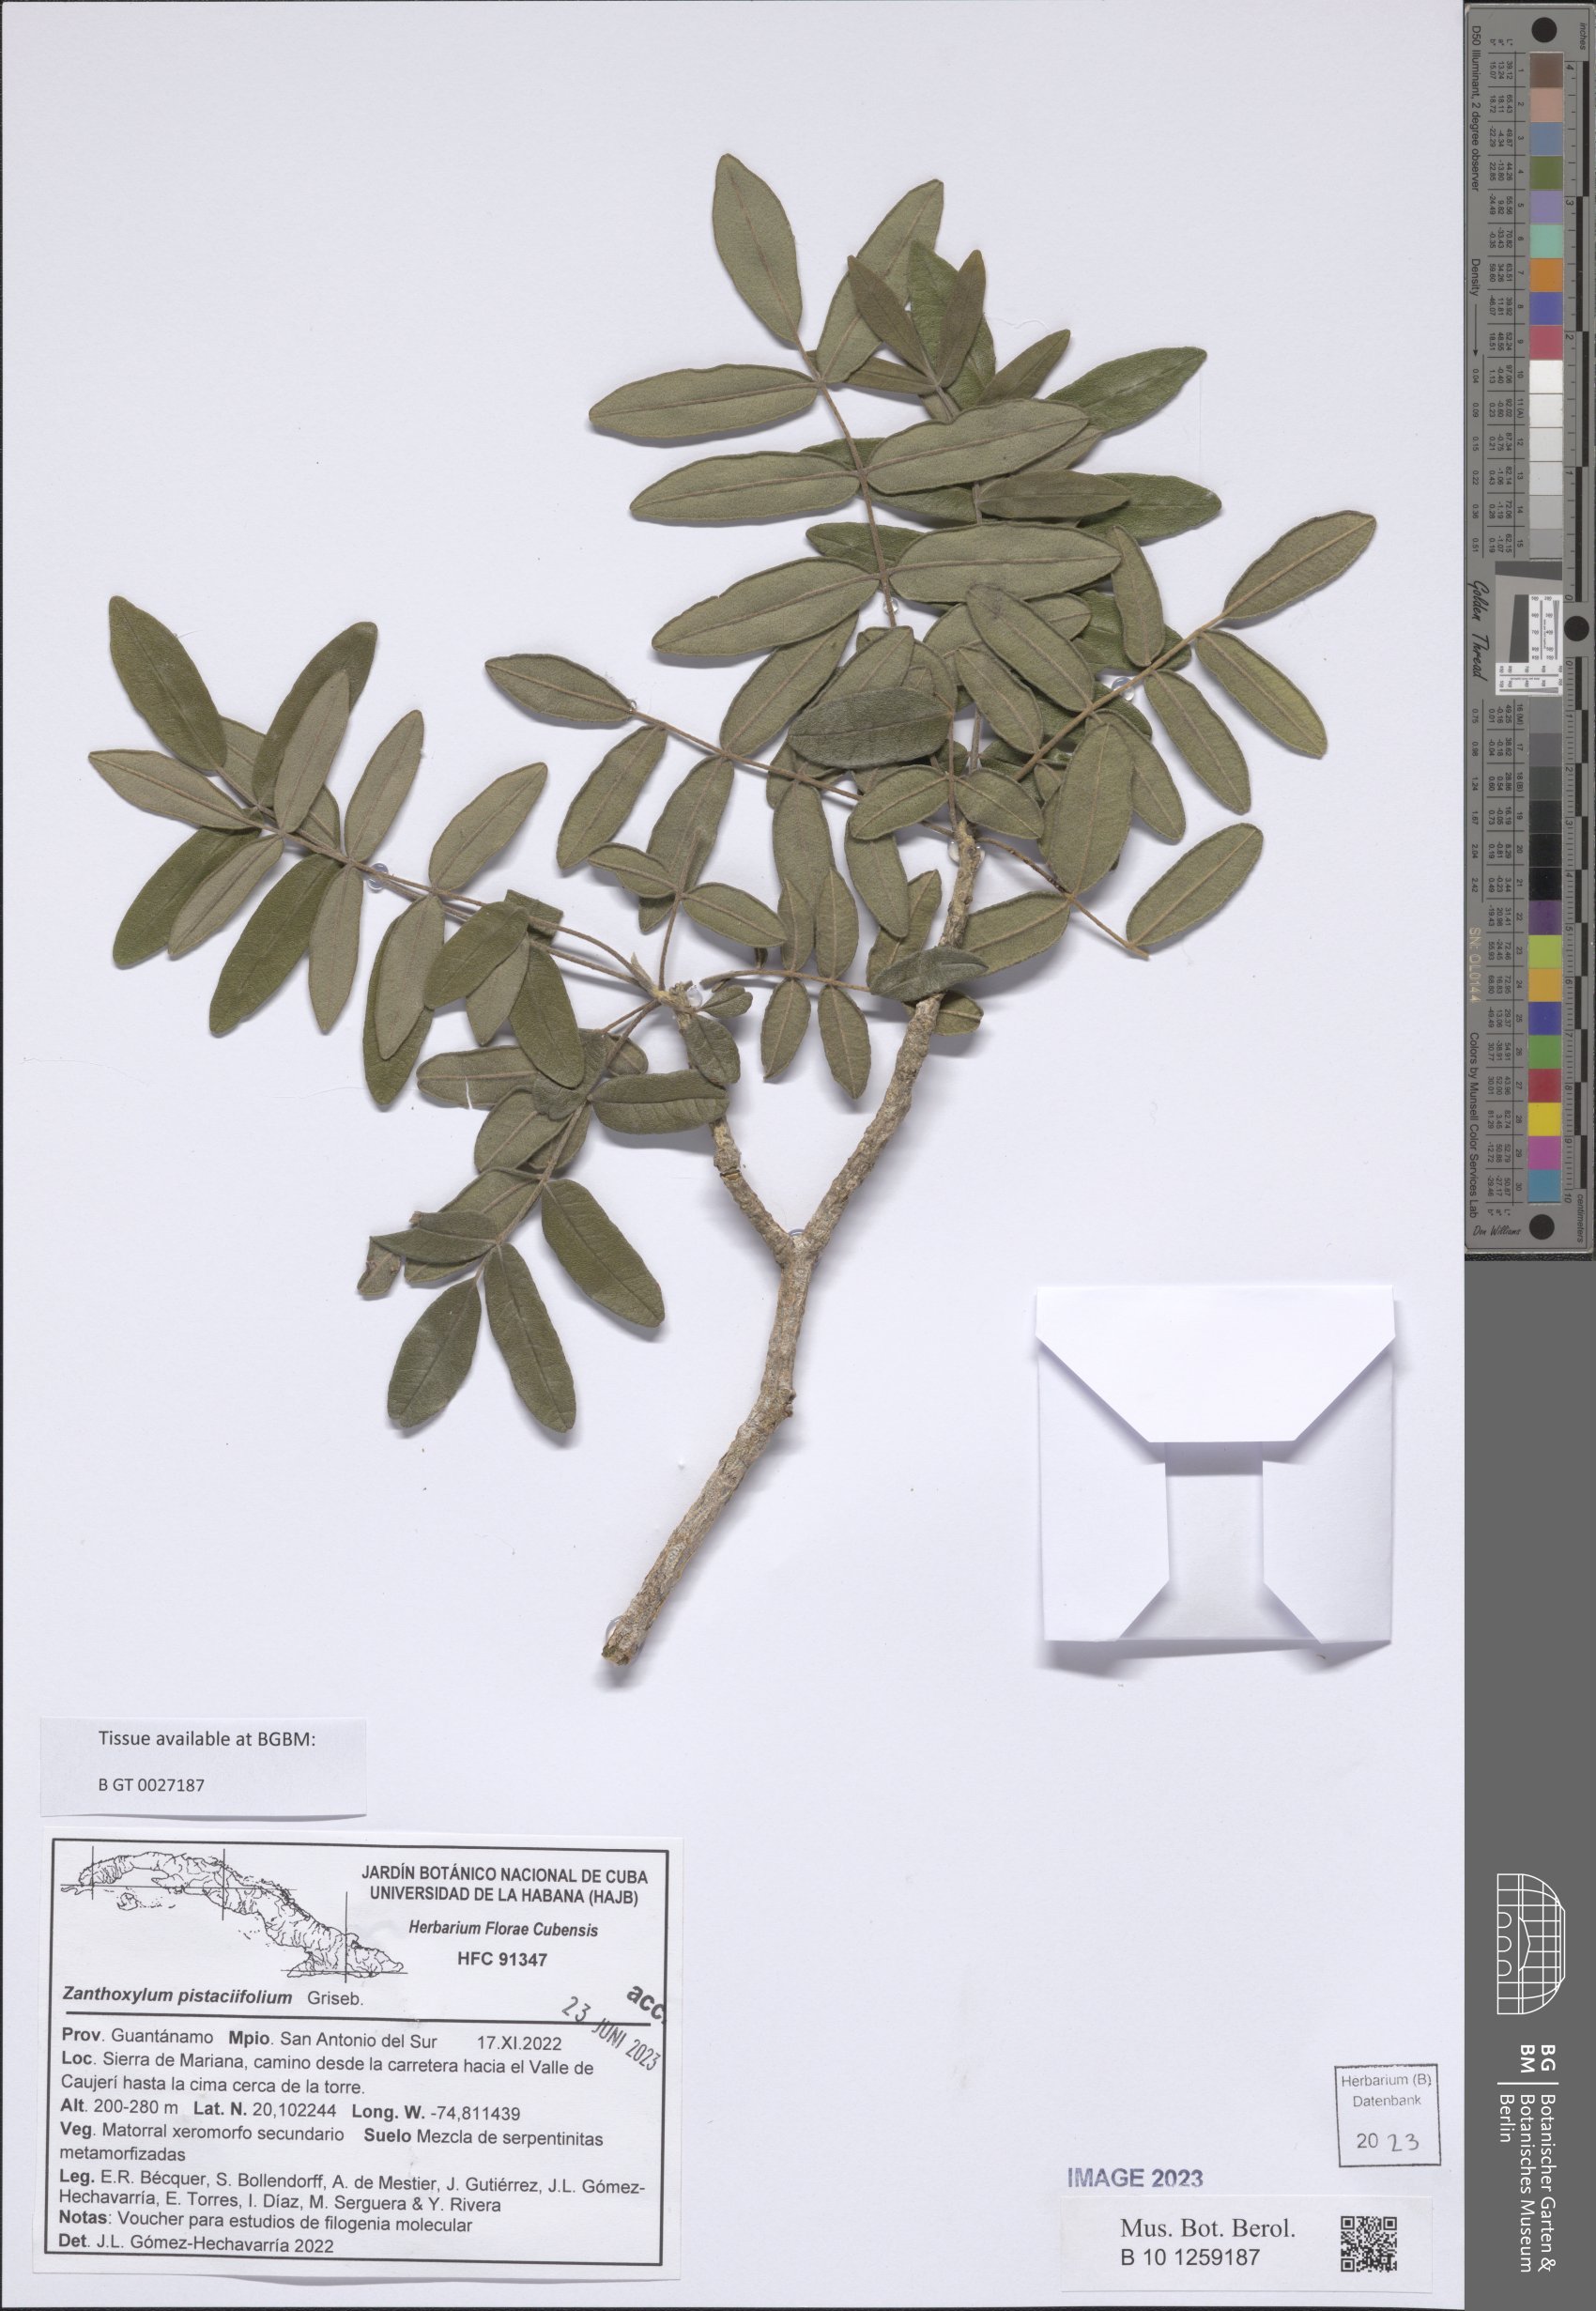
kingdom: Plantae
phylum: Tracheophyta
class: Magnoliopsida
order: Sapindales
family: Rutaceae
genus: Zanthoxylum
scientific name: Zanthoxylum flavum
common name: West indian satinwood
